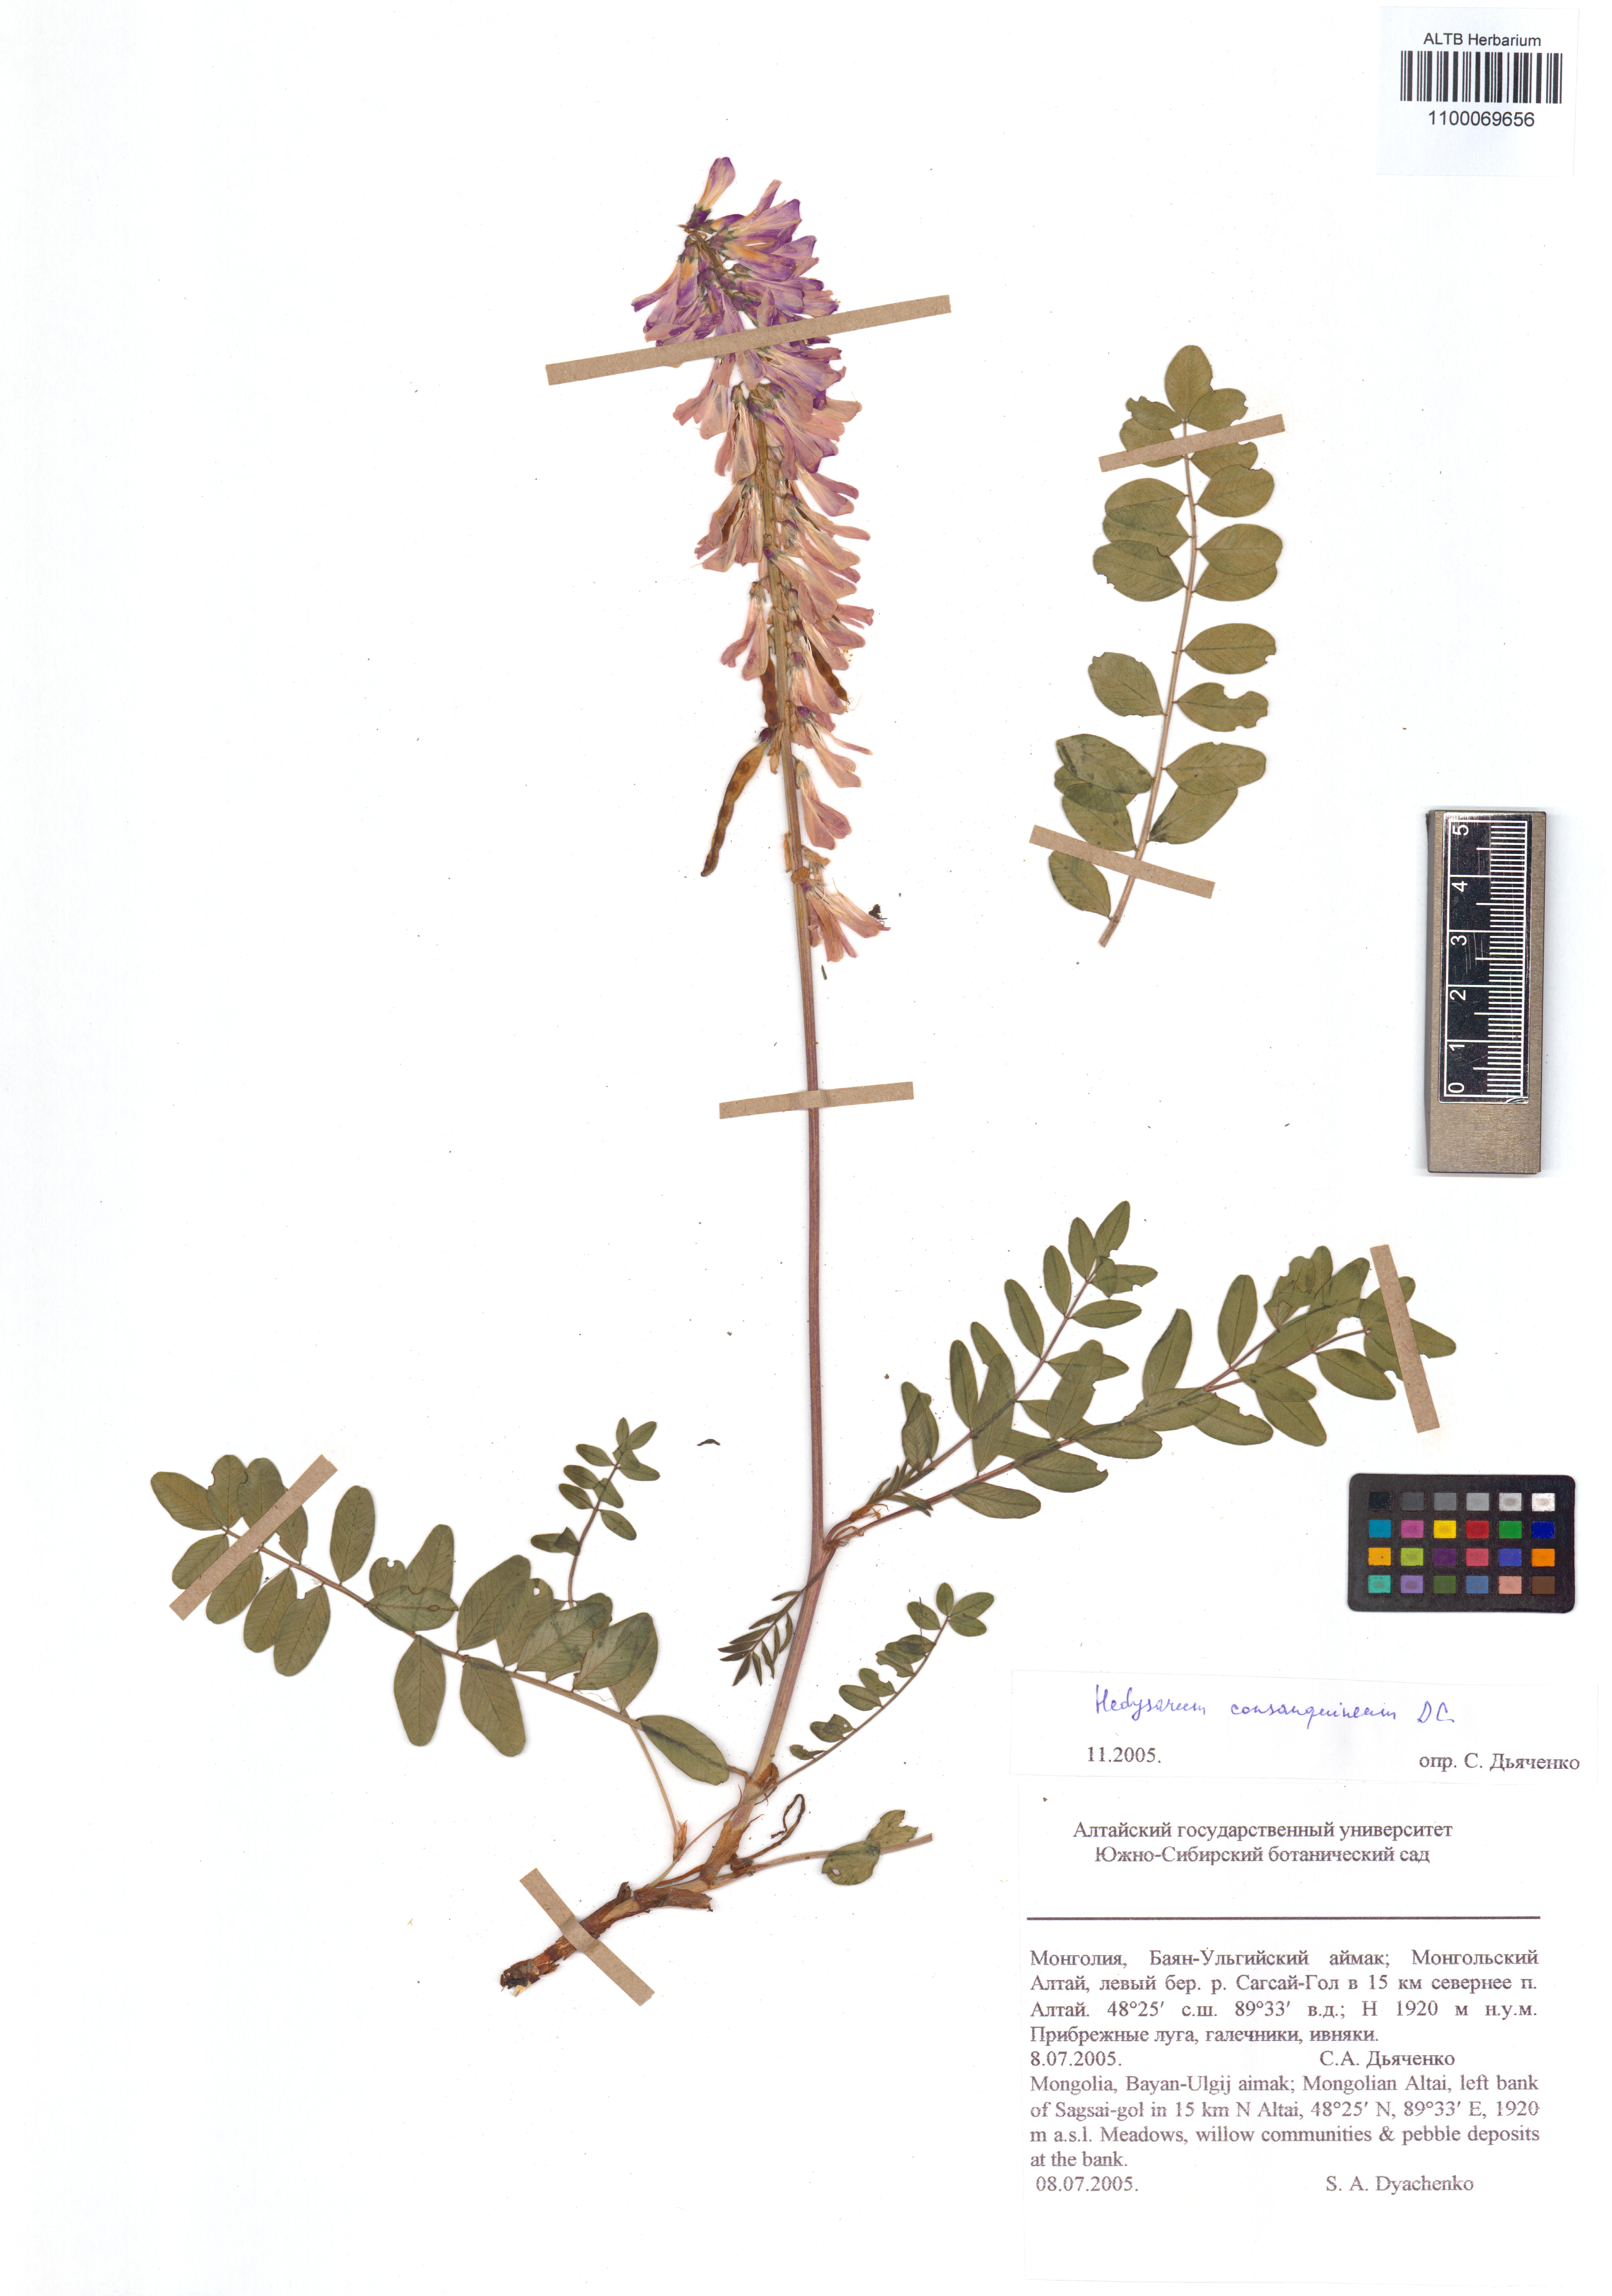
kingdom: Plantae
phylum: Tracheophyta
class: Magnoliopsida
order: Fabales
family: Fabaceae
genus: Hedysarum
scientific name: Hedysarum consanguineum
